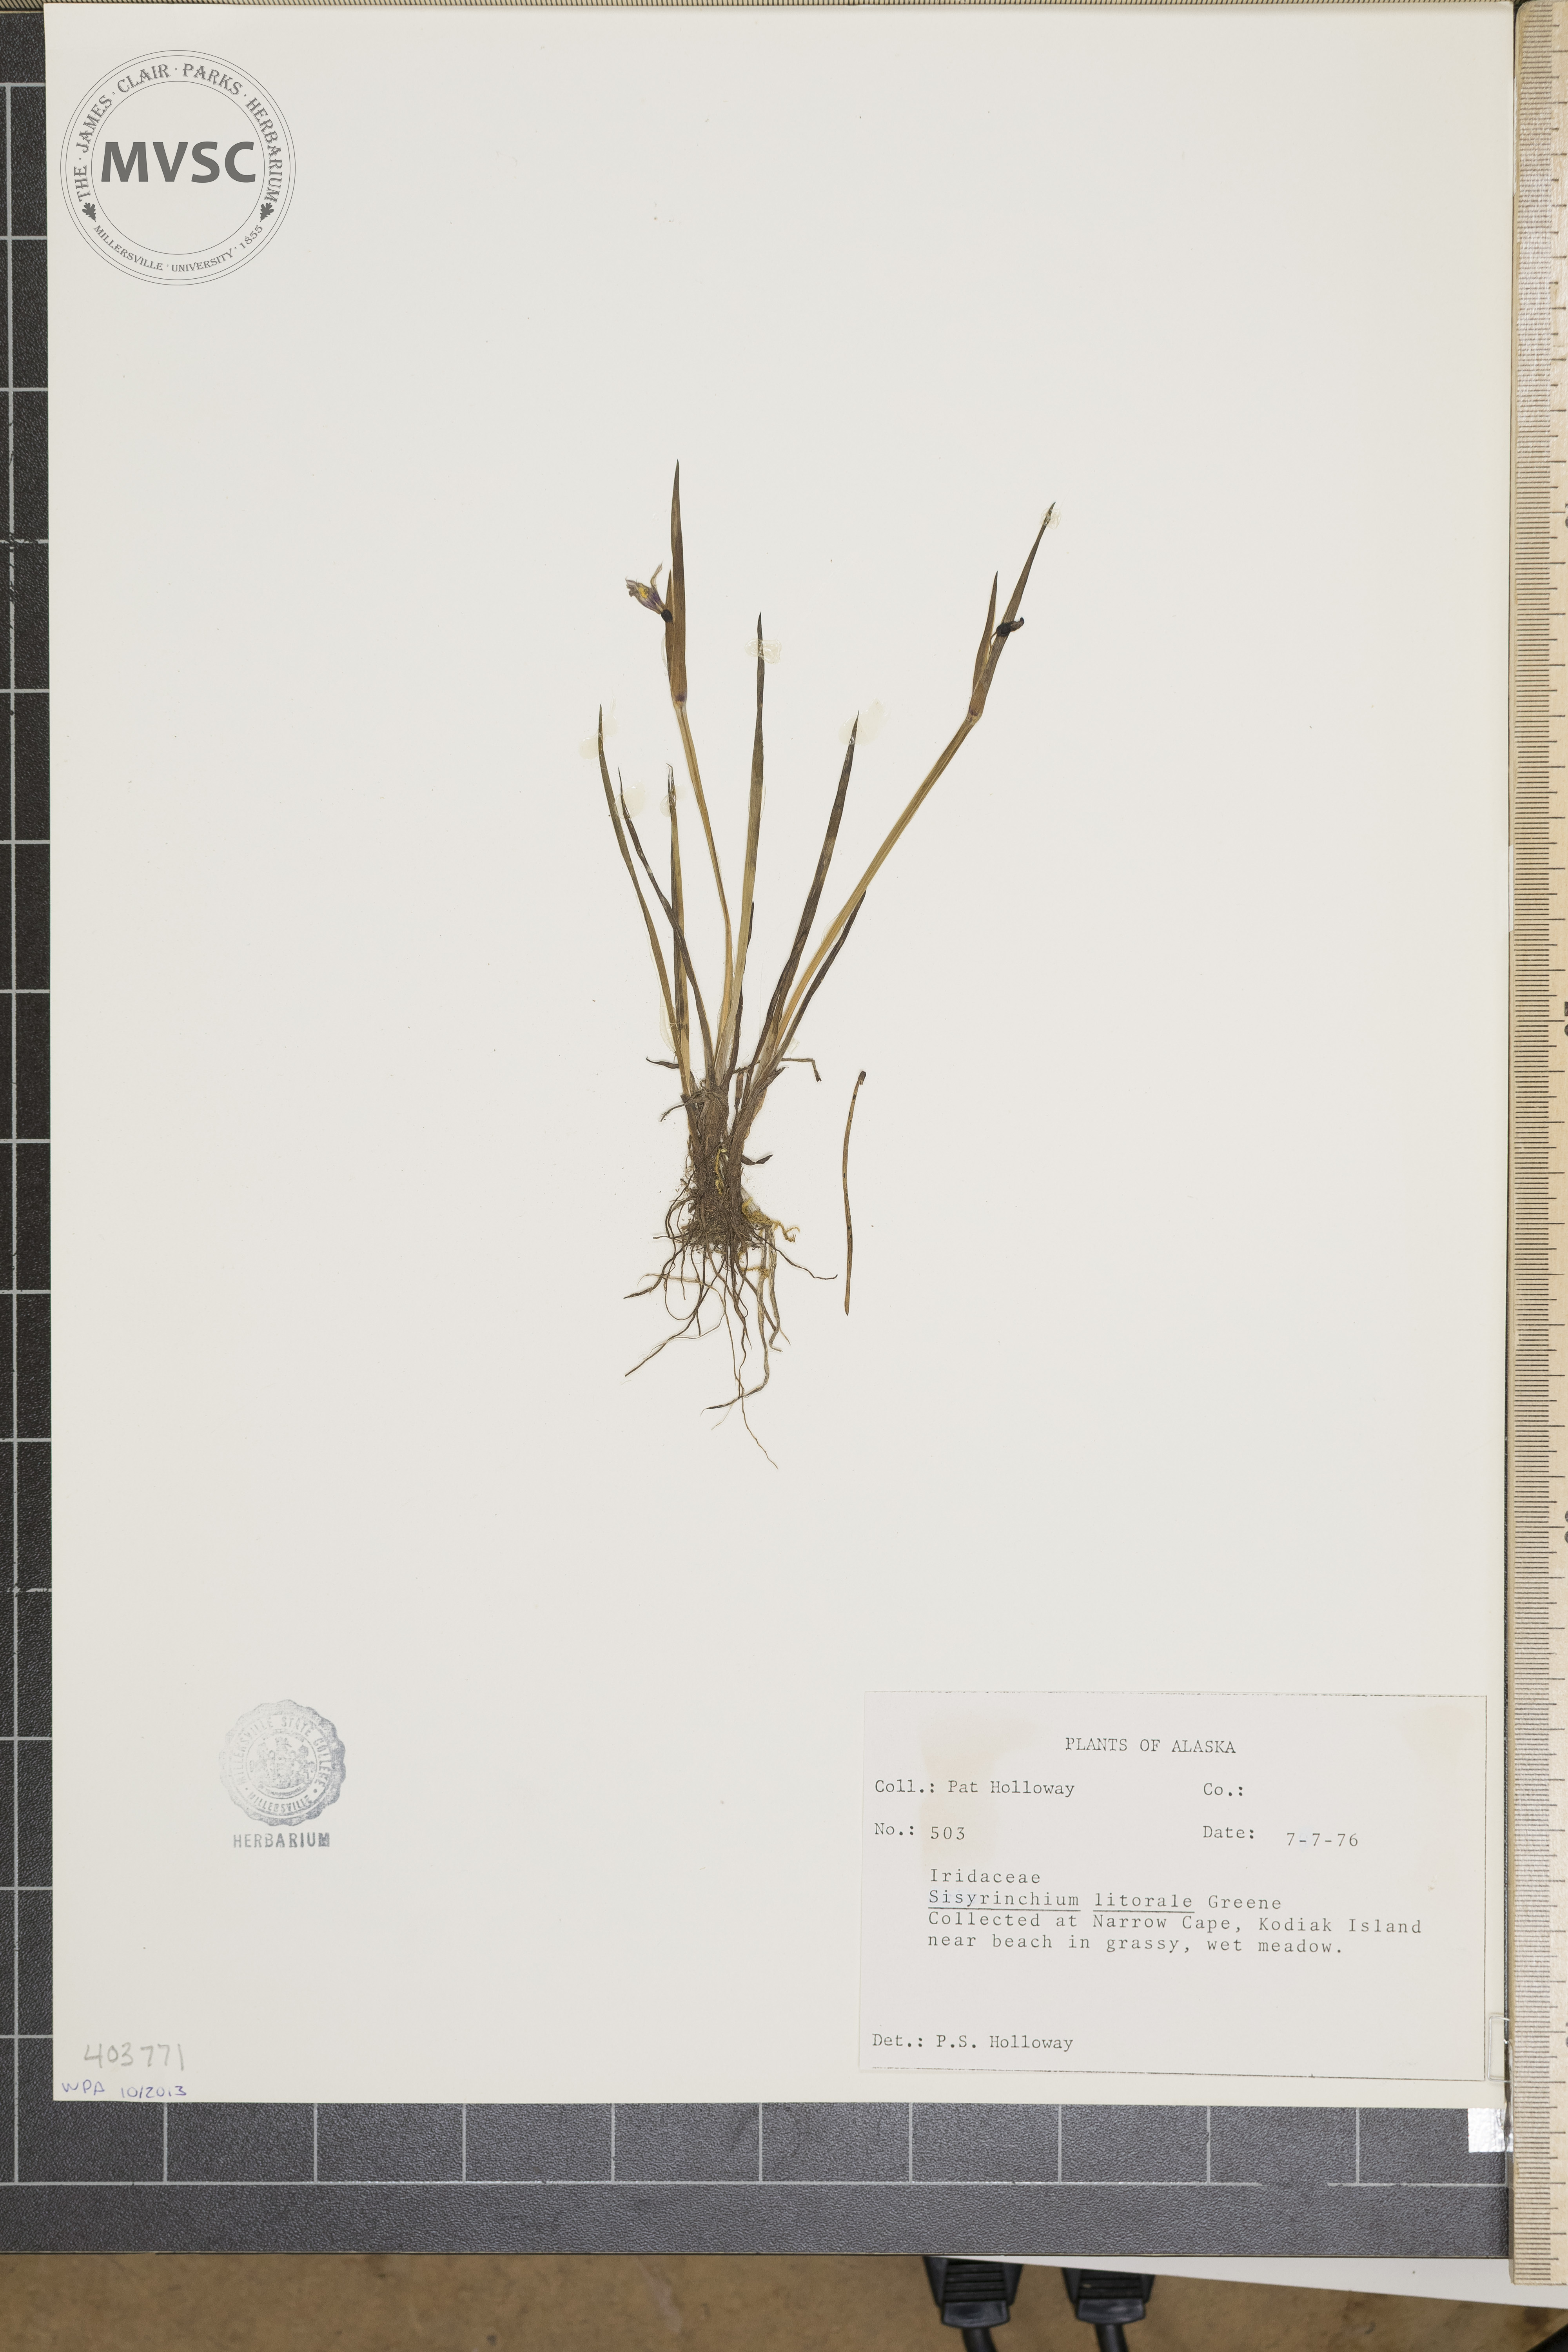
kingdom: Plantae
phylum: Tracheophyta
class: Liliopsida
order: Asparagales
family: Iridaceae
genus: Sisyrinchium
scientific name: Sisyrinchium littorale
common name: Alaska blue-eyed-grass
